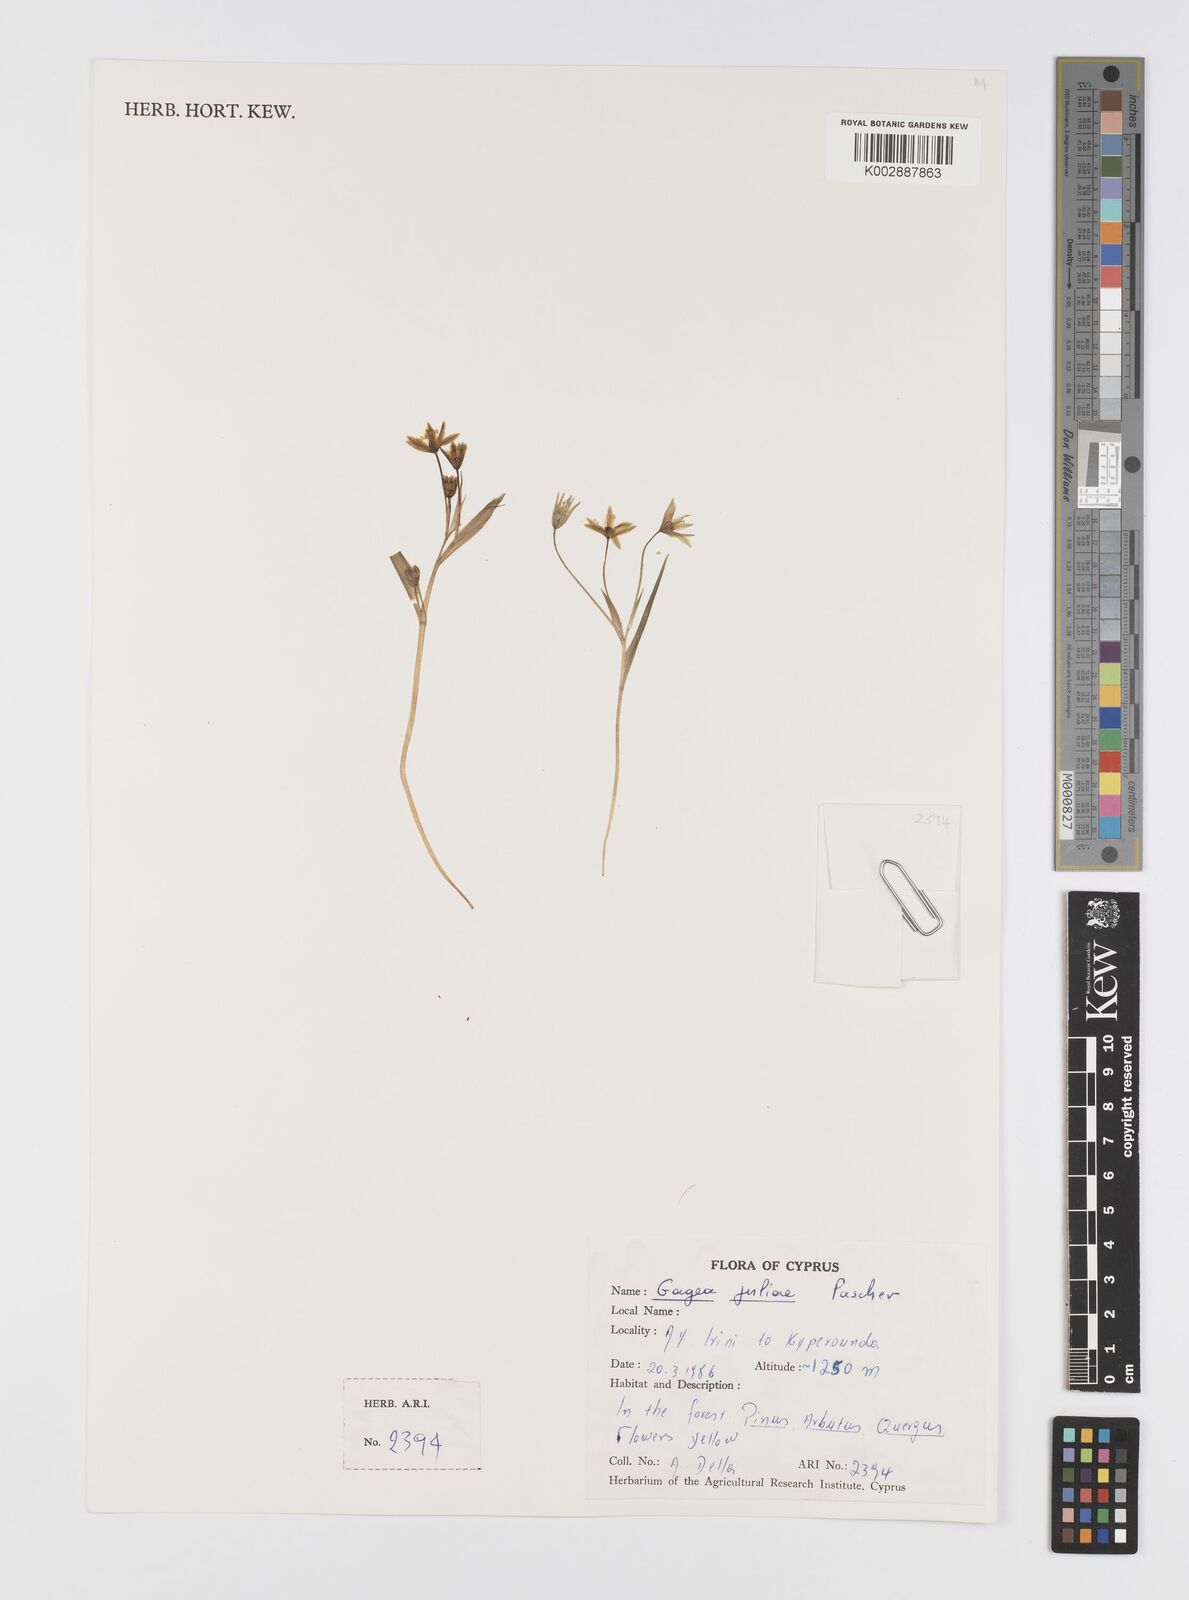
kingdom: Plantae
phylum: Tracheophyta
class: Liliopsida
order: Liliales
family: Liliaceae
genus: Gagea
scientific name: Gagea juliae
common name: Julia’s gagea
